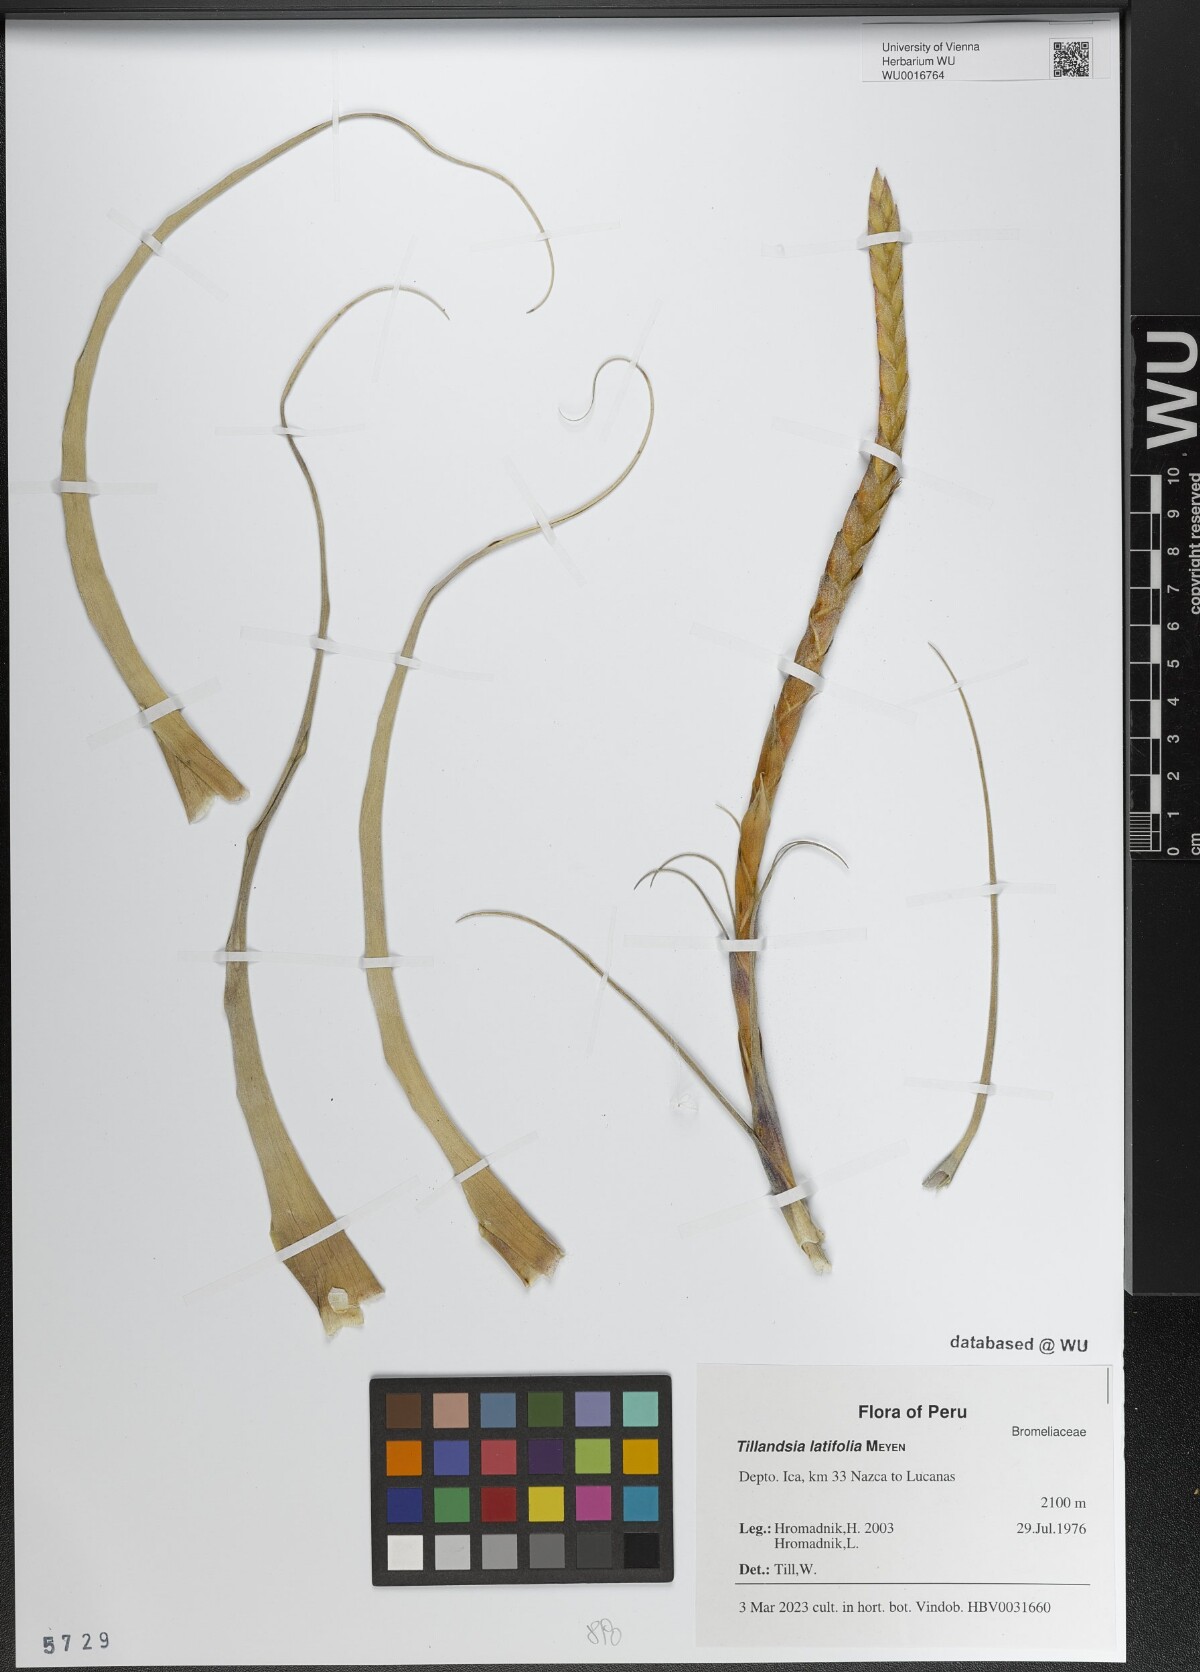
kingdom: Plantae
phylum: Tracheophyta
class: Liliopsida
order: Poales
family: Bromeliaceae
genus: Tillandsia
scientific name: Tillandsia latifolia
